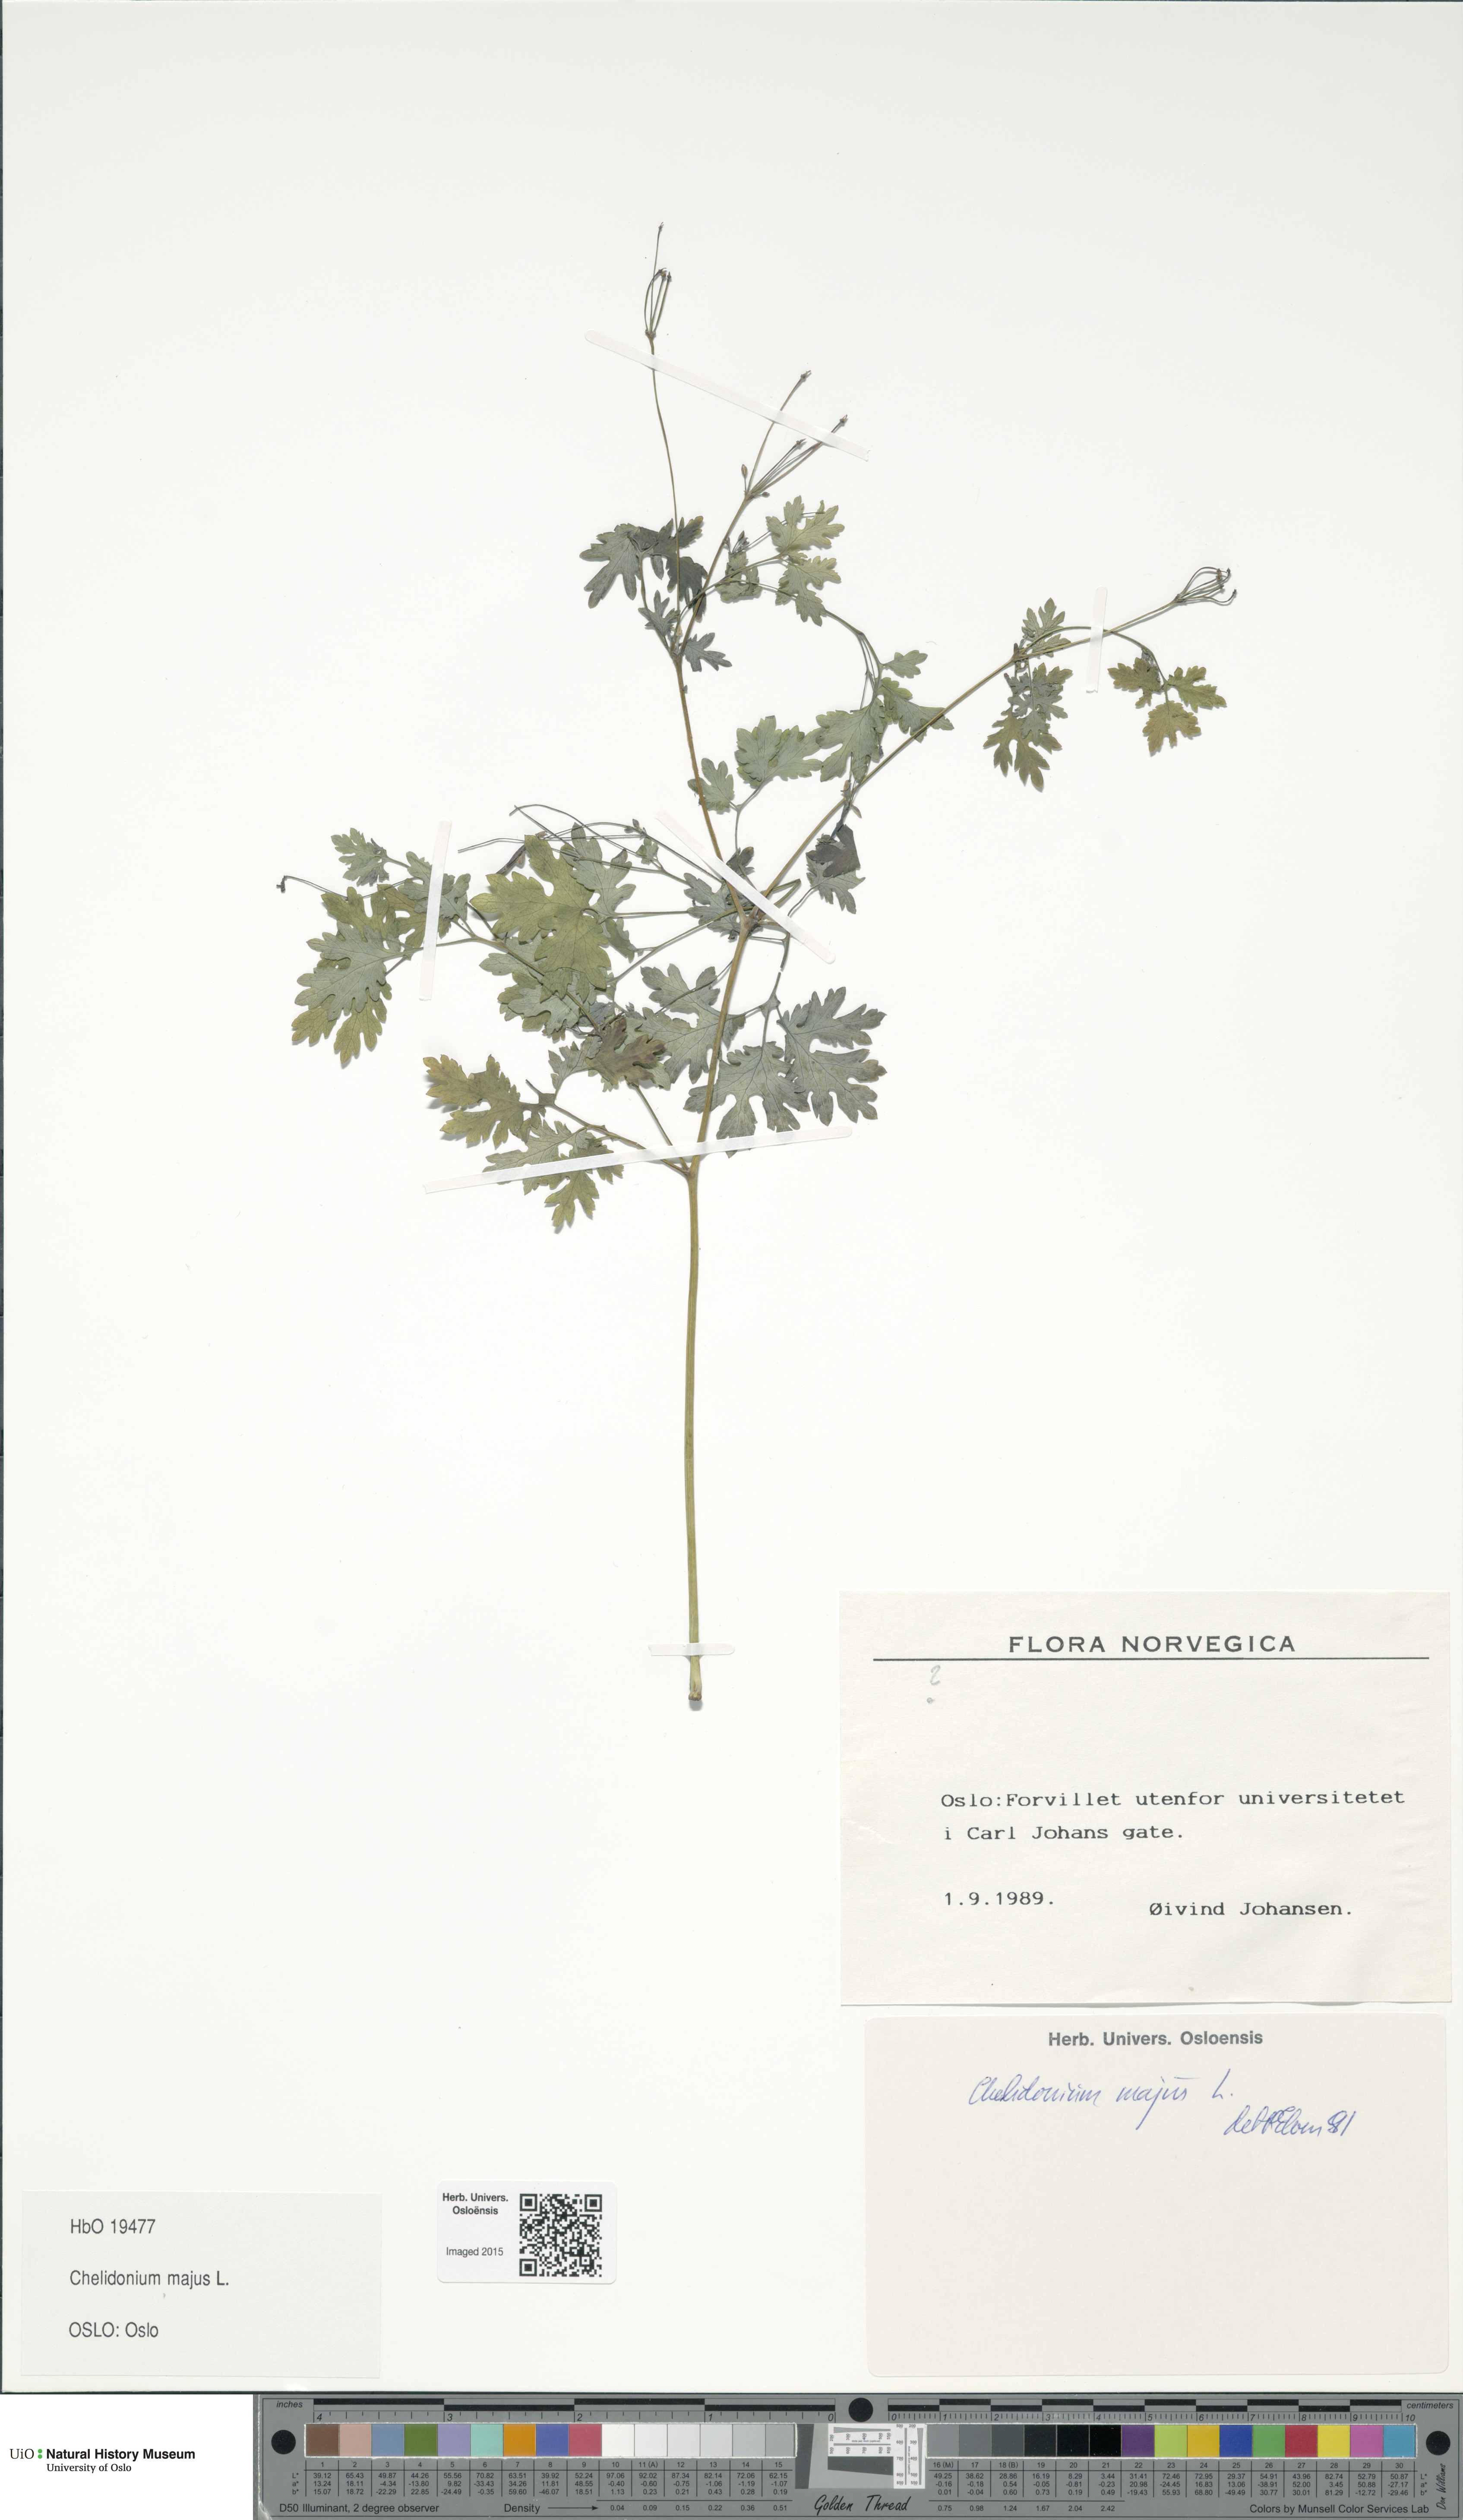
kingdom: Plantae
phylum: Tracheophyta
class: Magnoliopsida
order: Ranunculales
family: Papaveraceae
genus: Chelidonium
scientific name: Chelidonium majus
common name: Greater celandine
